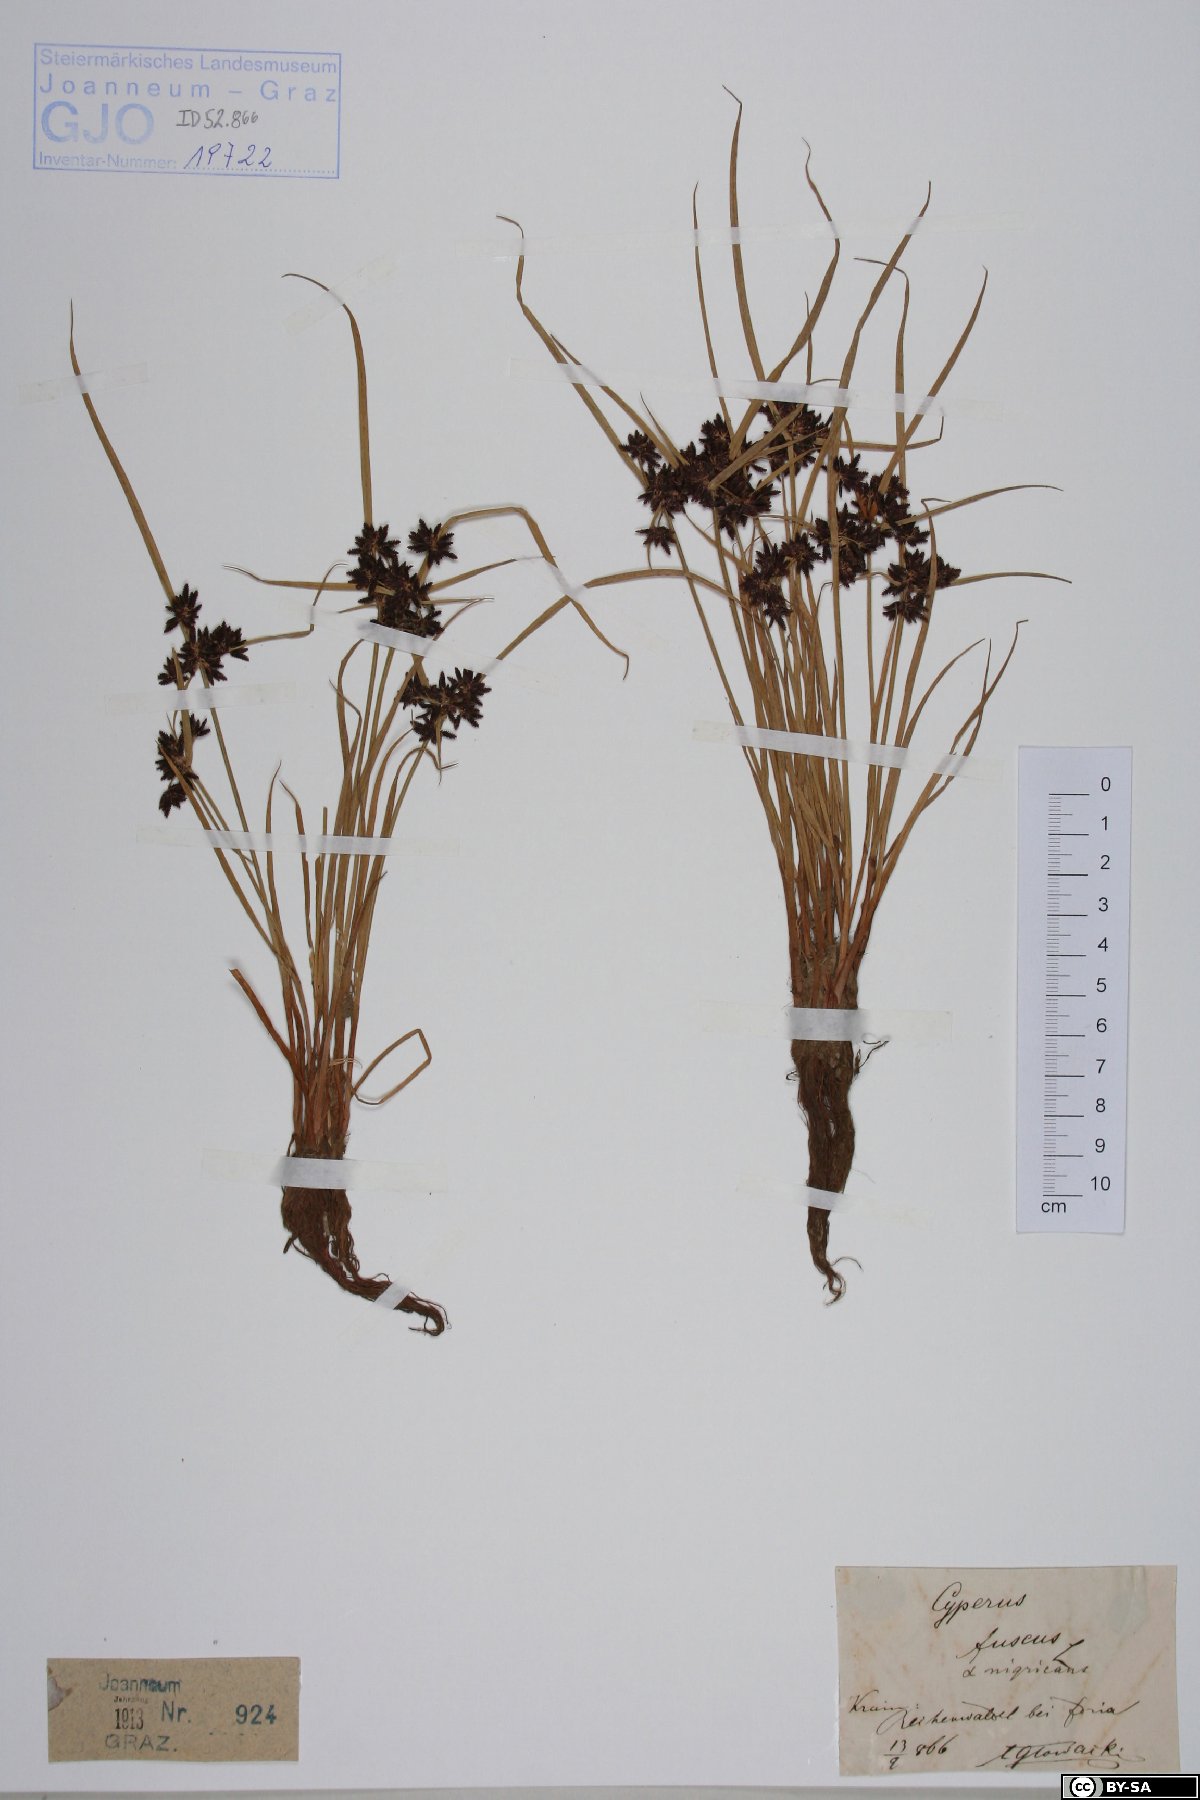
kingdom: Plantae
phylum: Tracheophyta
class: Liliopsida
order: Poales
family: Cyperaceae
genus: Cyperus
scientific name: Cyperus fuscus
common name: Brown galingale
